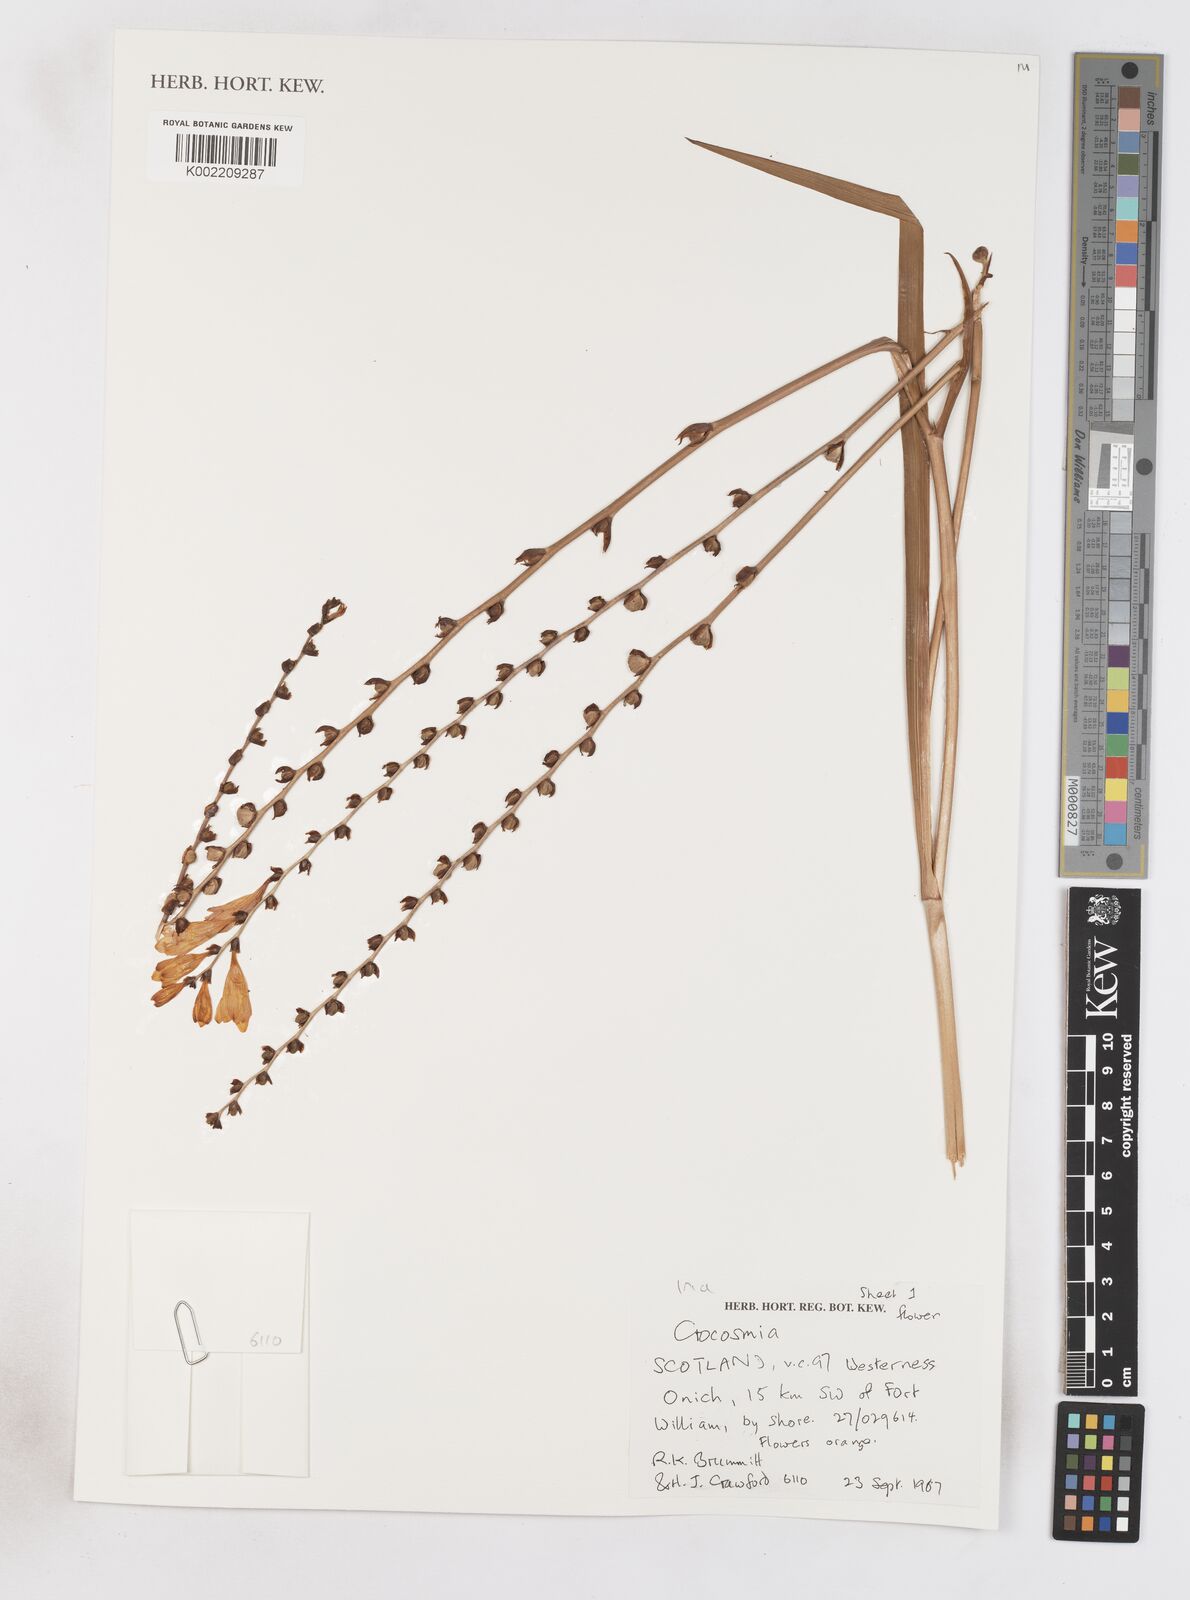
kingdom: Plantae
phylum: Tracheophyta
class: Liliopsida
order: Asparagales
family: Iridaceae
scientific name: Iridaceae
